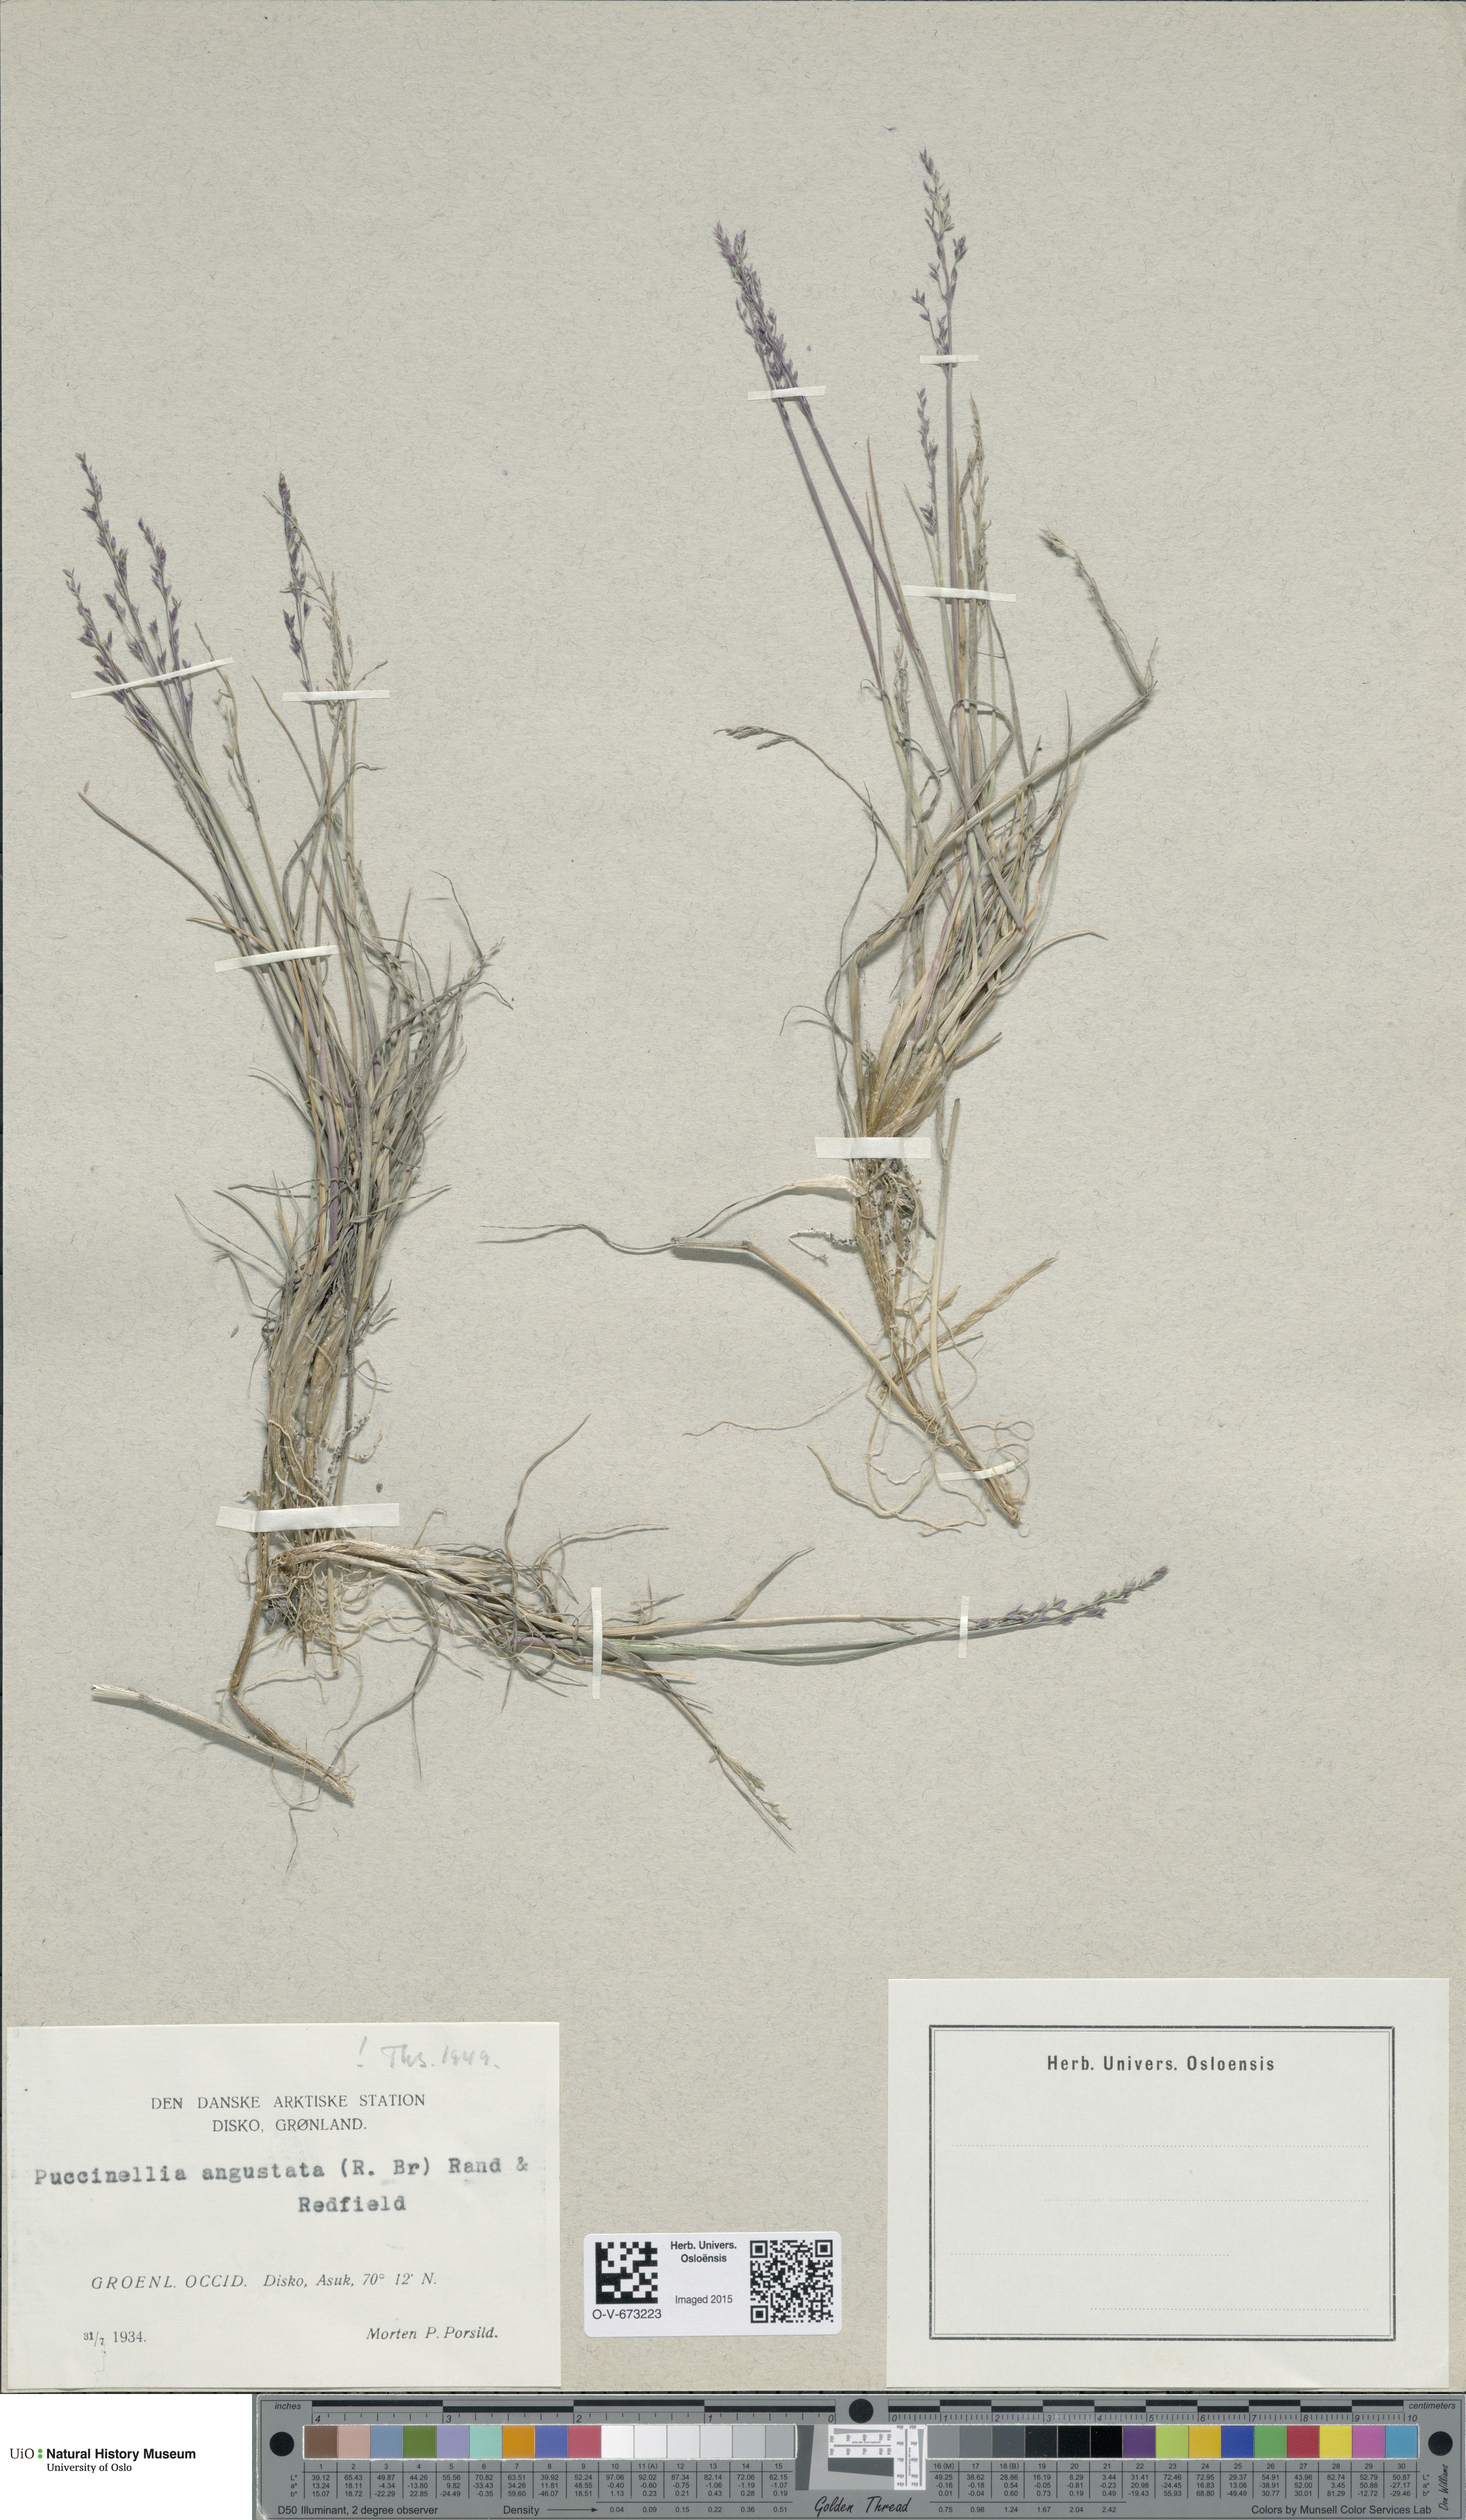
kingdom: Plantae
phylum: Tracheophyta
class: Liliopsida
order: Poales
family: Poaceae
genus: Puccinellia
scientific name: Puccinellia angustata
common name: Narrow alkaligrass
